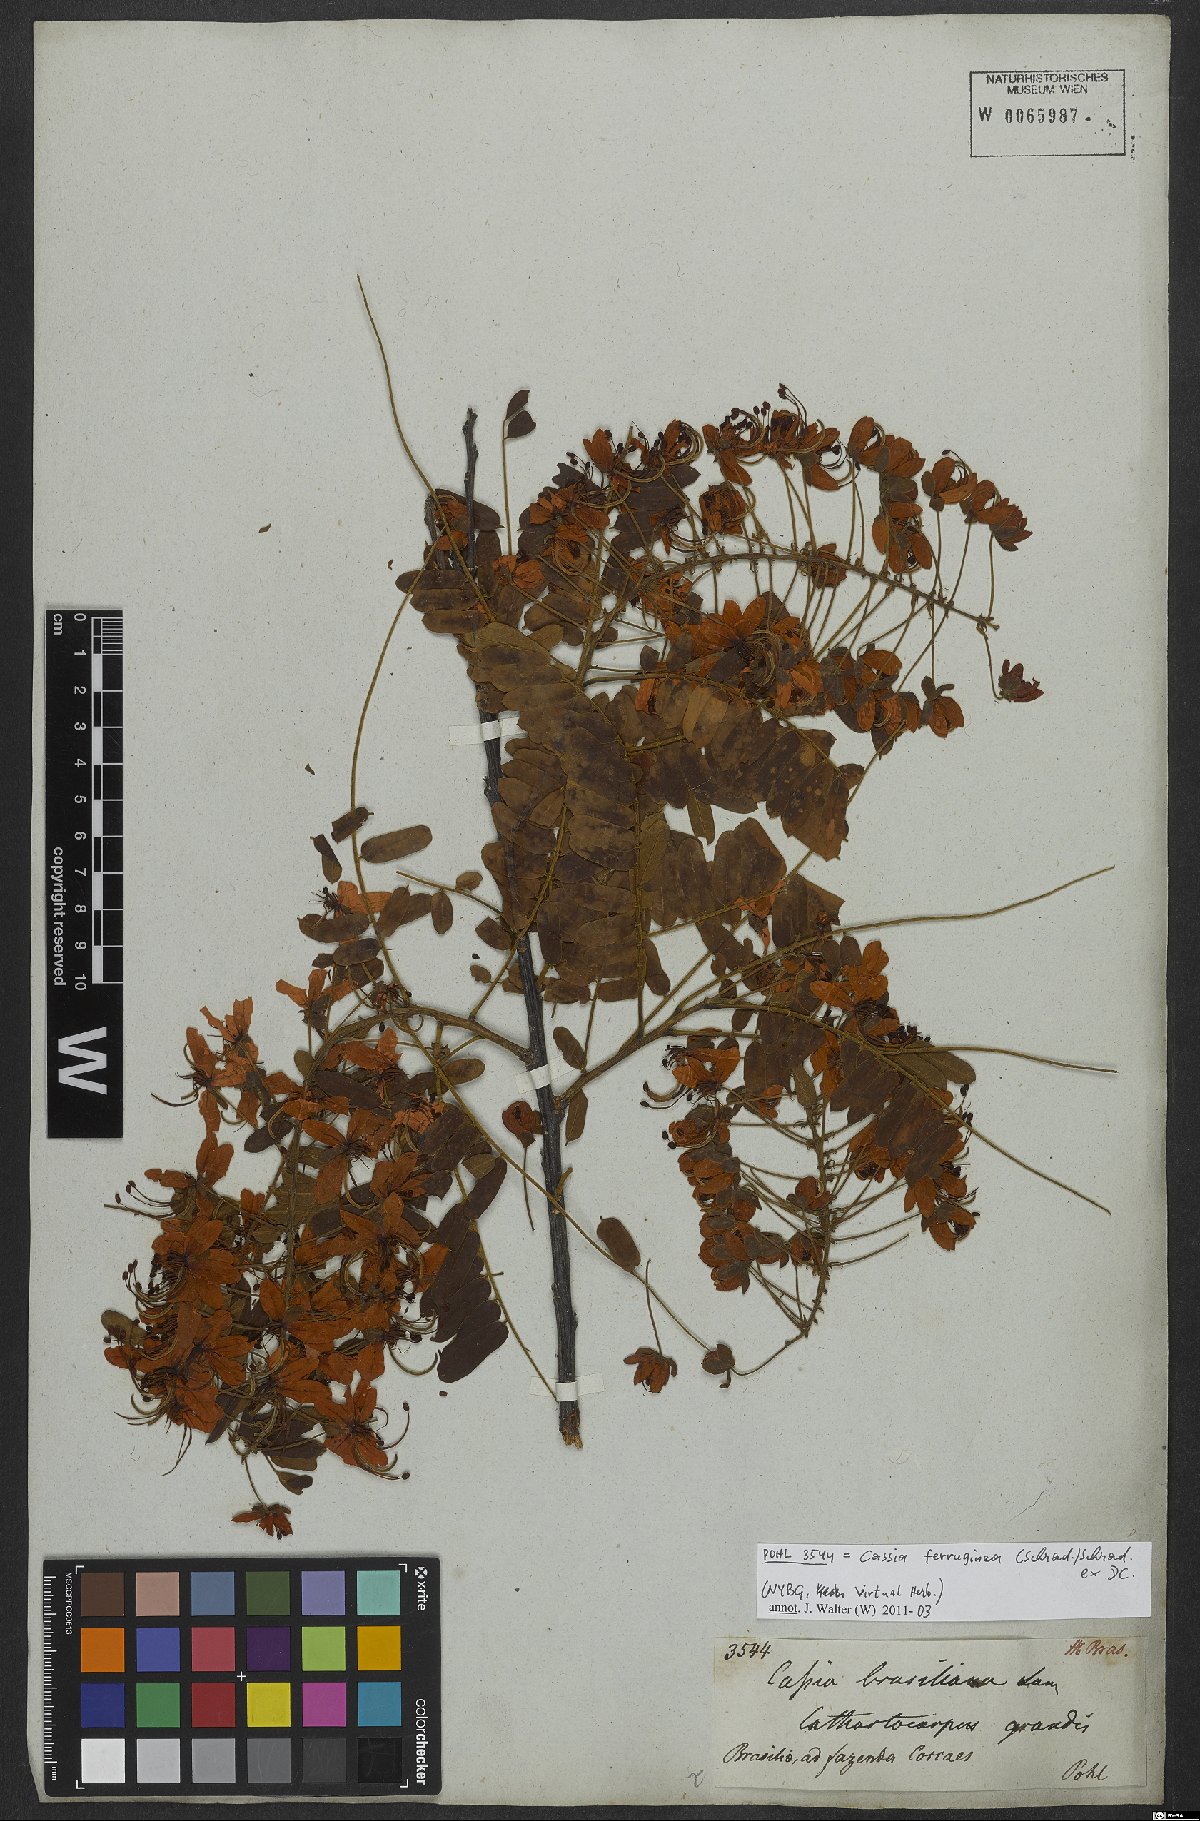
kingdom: Plantae
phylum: Tracheophyta
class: Magnoliopsida
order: Fabales
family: Fabaceae
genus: Cassia
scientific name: Cassia grandis
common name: Appleblossom cassia
